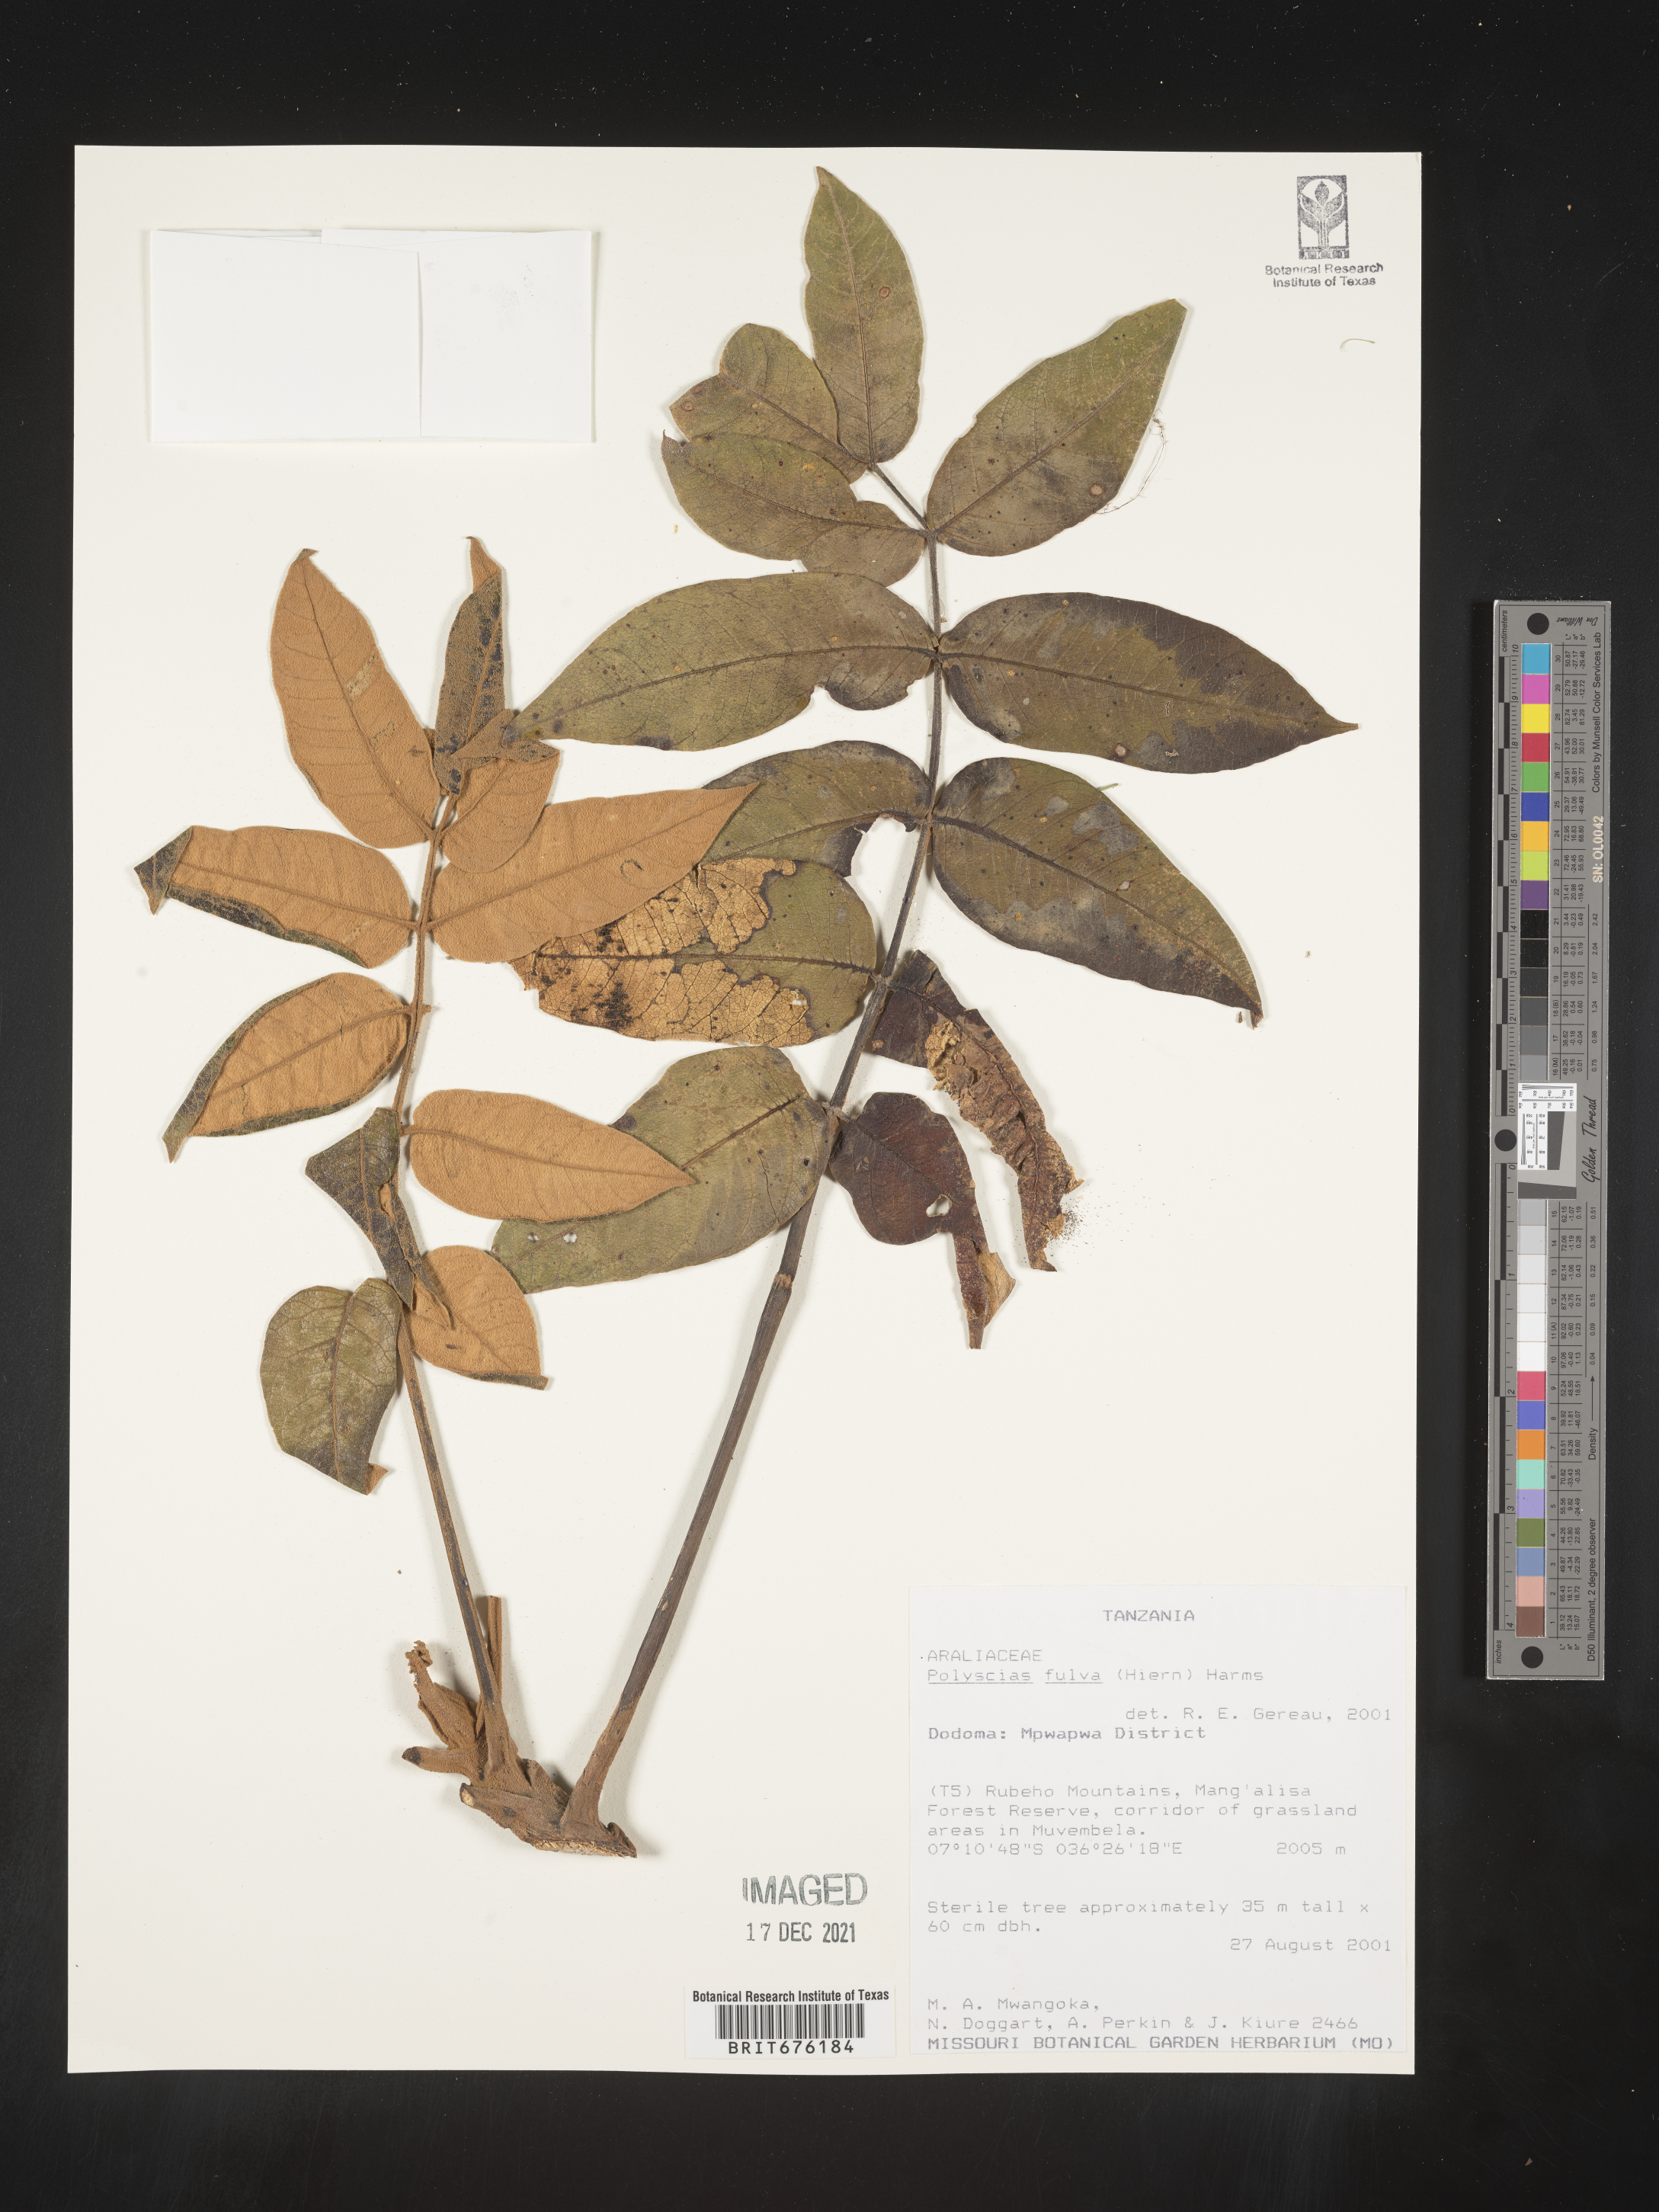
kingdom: Plantae
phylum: Tracheophyta
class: Magnoliopsida
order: Apiales
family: Araliaceae
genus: Polyscias
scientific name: Polyscias
